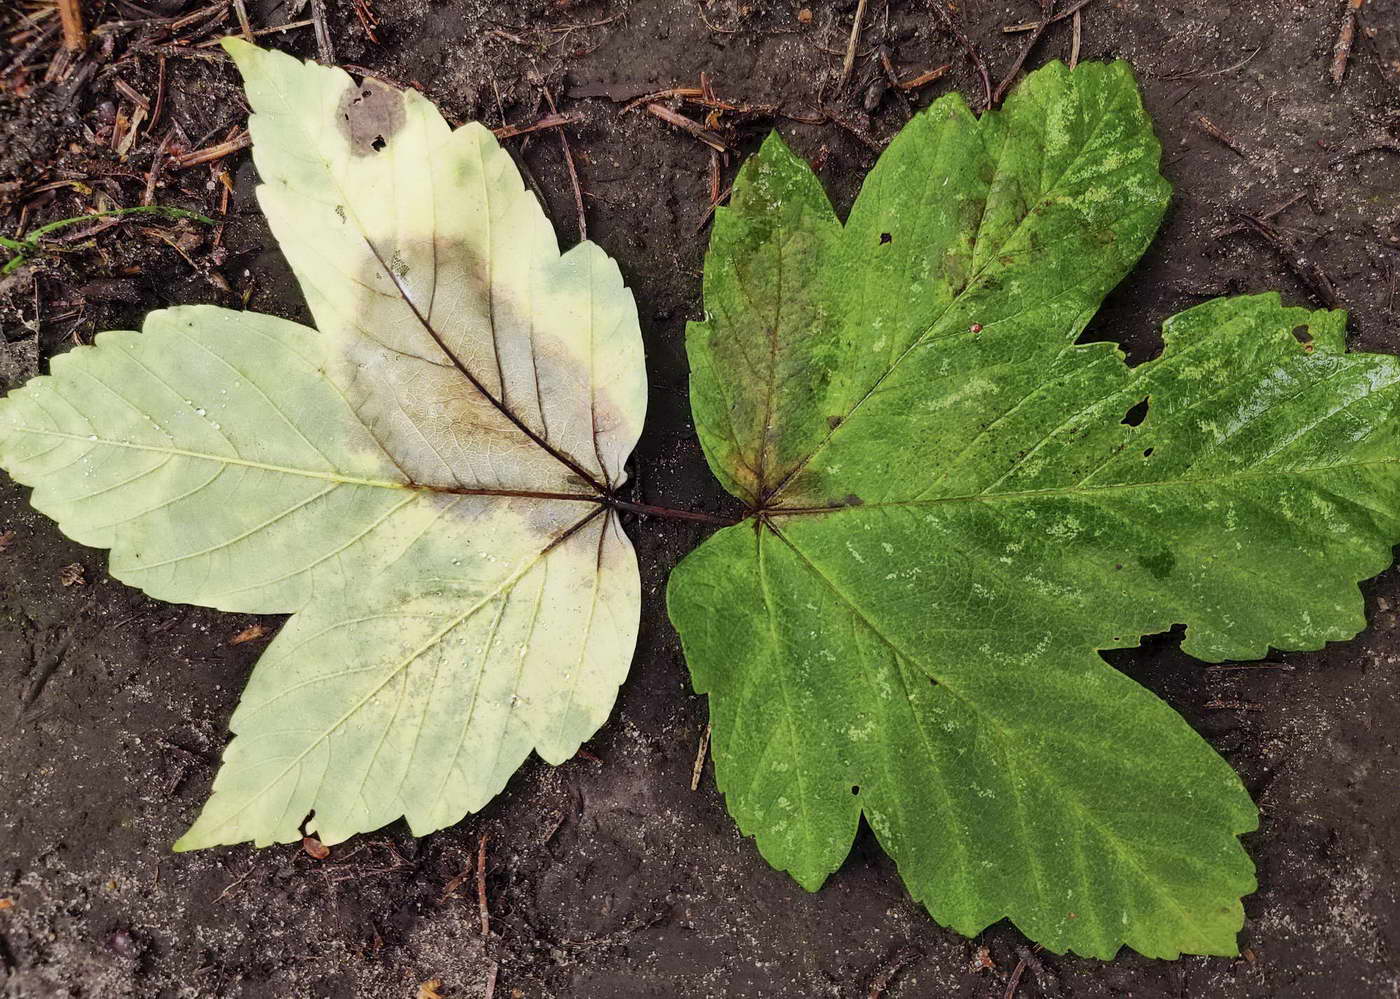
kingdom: Fungi
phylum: Ascomycota
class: Sordariomycetes
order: Diaporthales
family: Gnomoniaceae
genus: Pleuroceras
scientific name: Pleuroceras pseudoplatani
